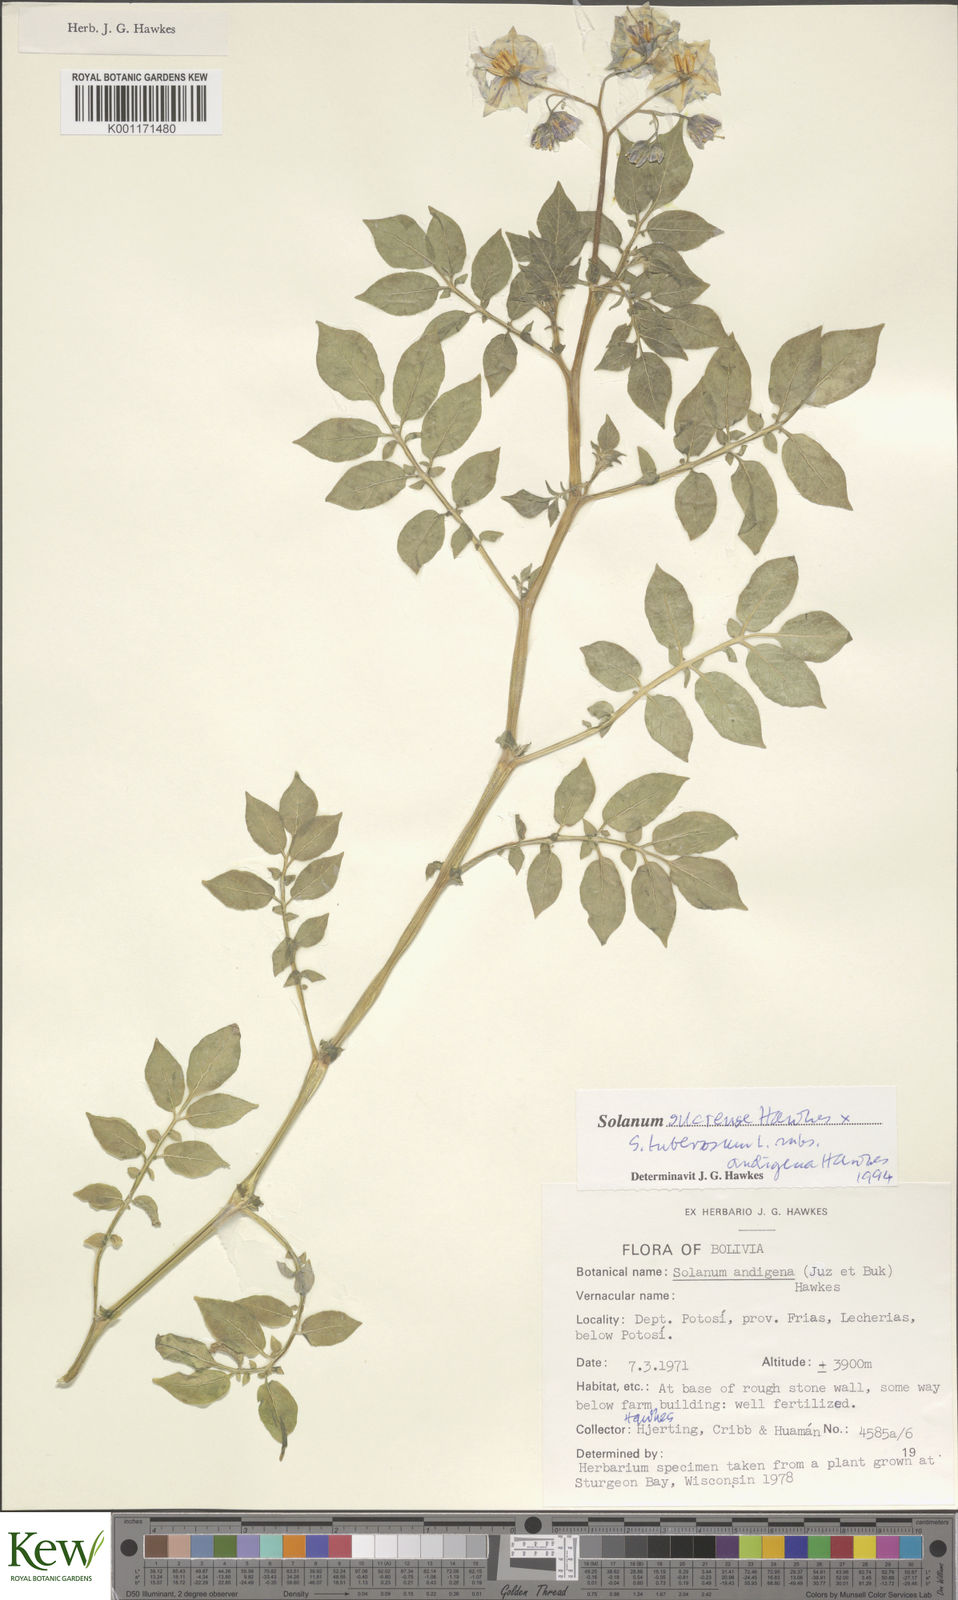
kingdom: Plantae
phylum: Tracheophyta
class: Magnoliopsida
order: Solanales
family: Solanaceae
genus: Solanum
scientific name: Solanum tuberosum
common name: Potato
